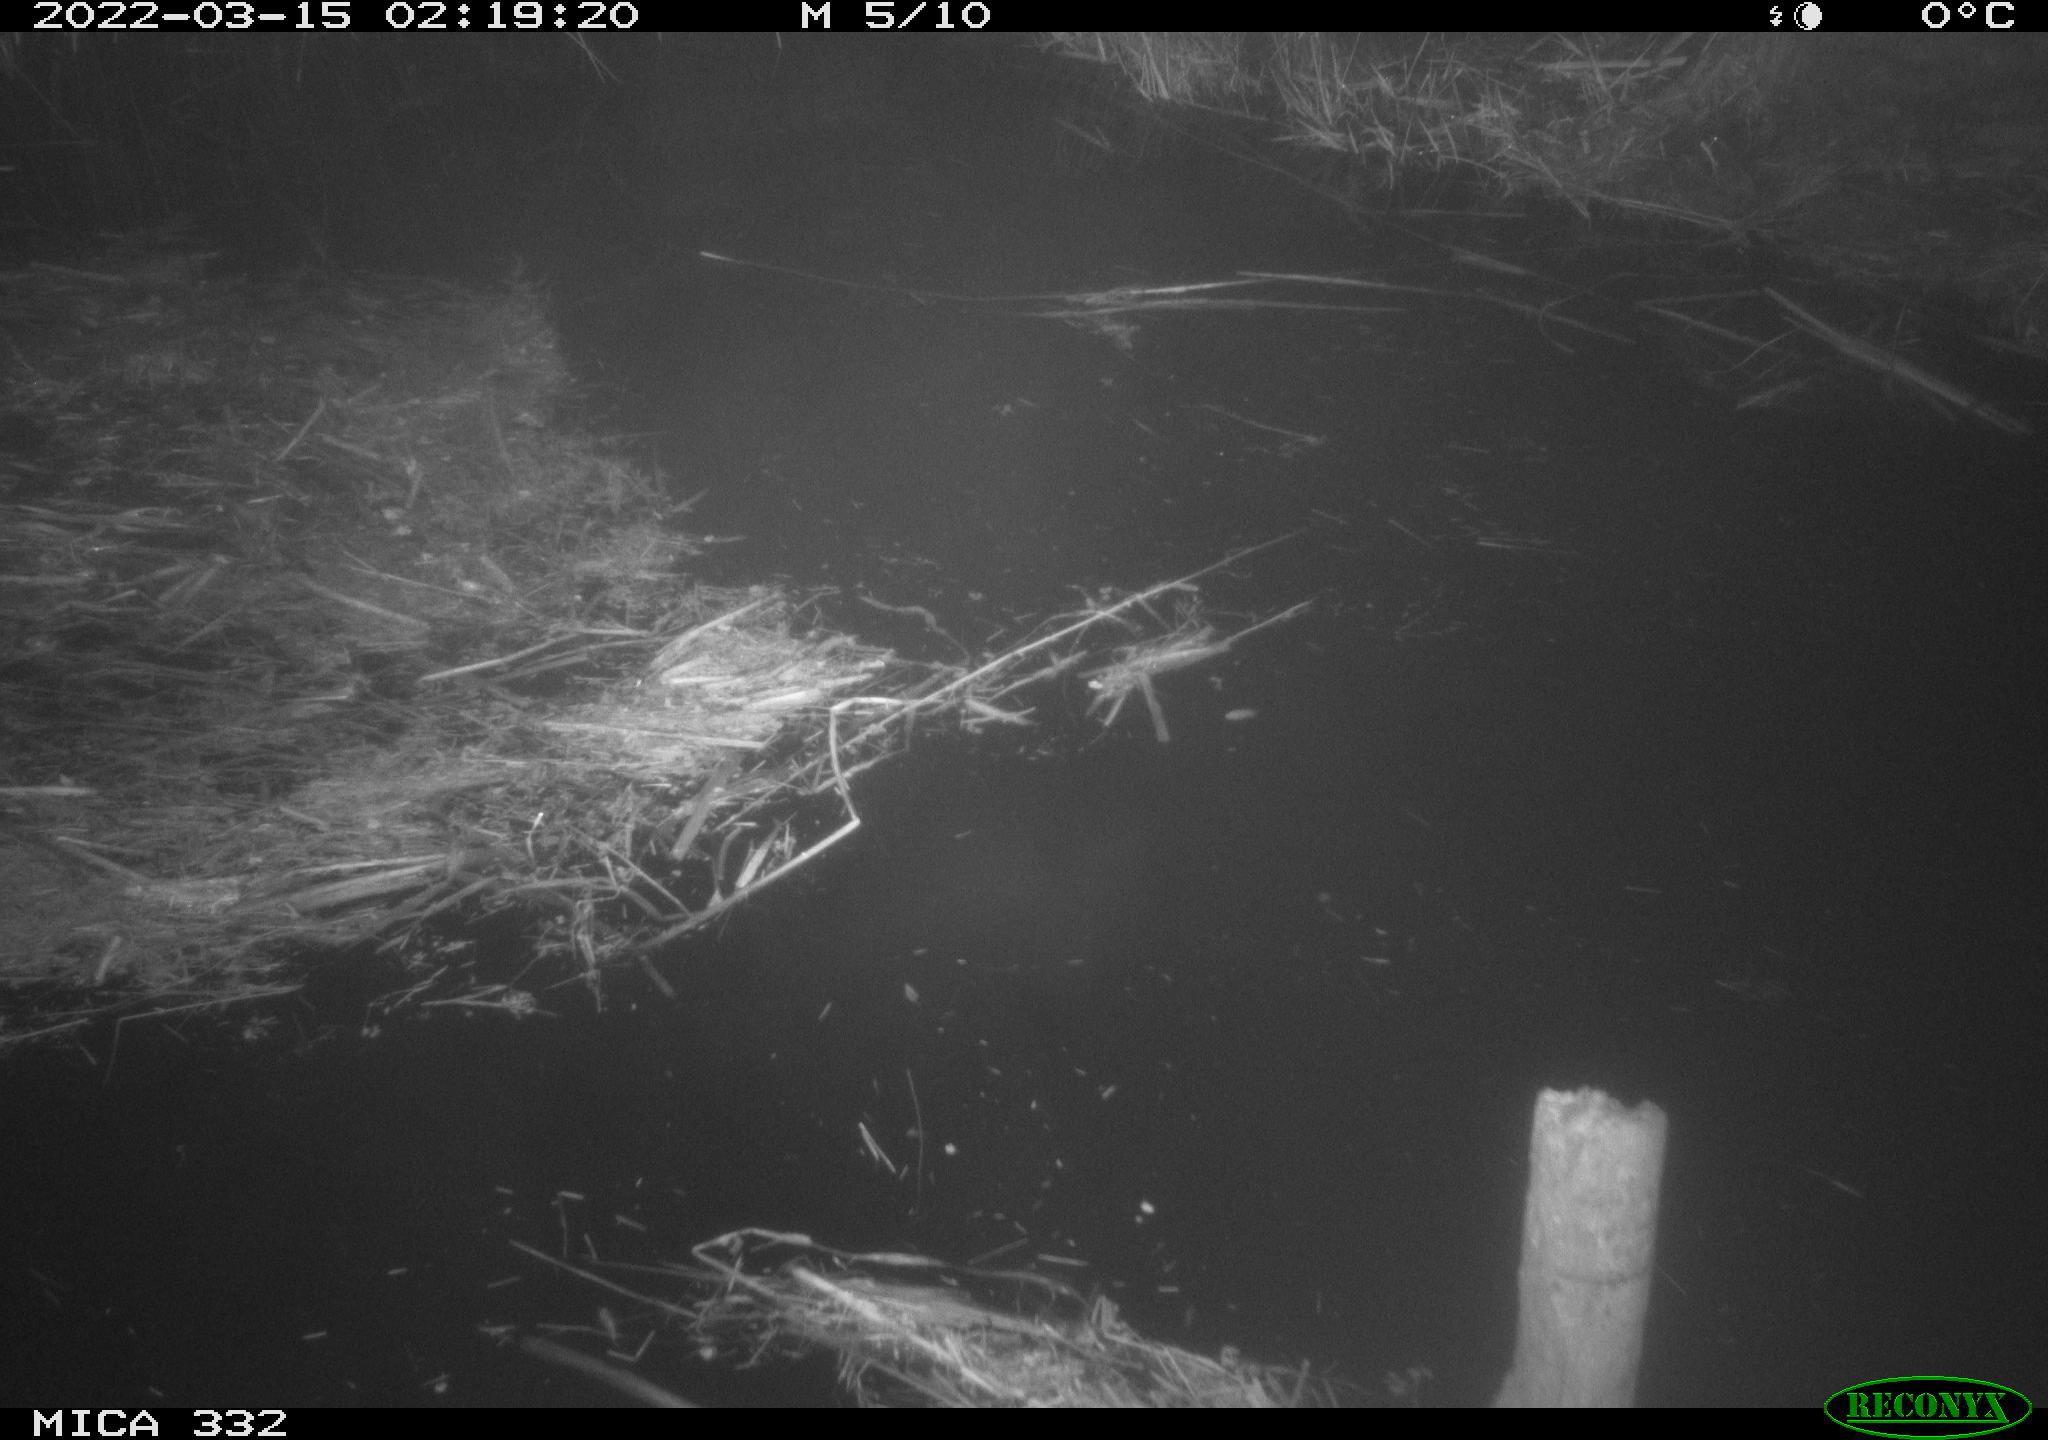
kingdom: Animalia
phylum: Chordata
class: Aves
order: Anseriformes
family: Anatidae
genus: Cygnus
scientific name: Cygnus olor
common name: Mute swan
